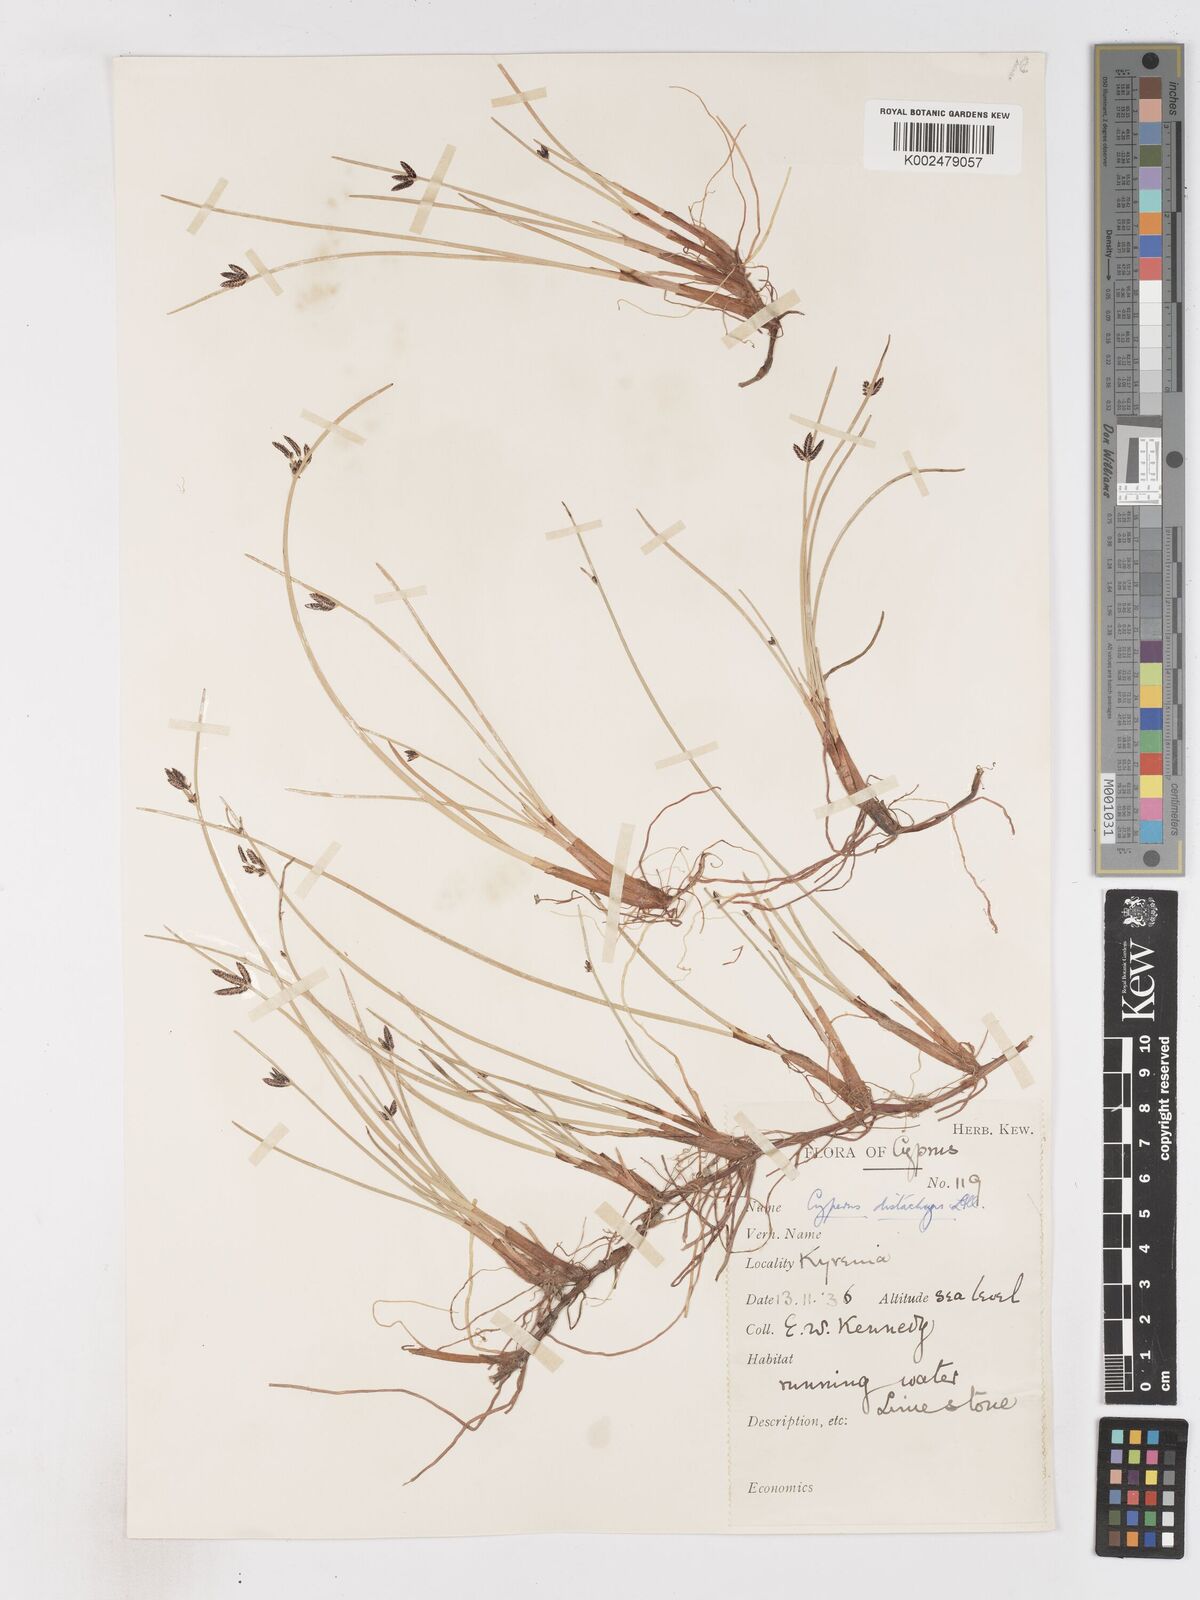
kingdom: Plantae
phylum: Tracheophyta
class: Liliopsida
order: Poales
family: Cyperaceae
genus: Cyperus
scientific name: Cyperus laevigatus
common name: Smooth flat sedge
